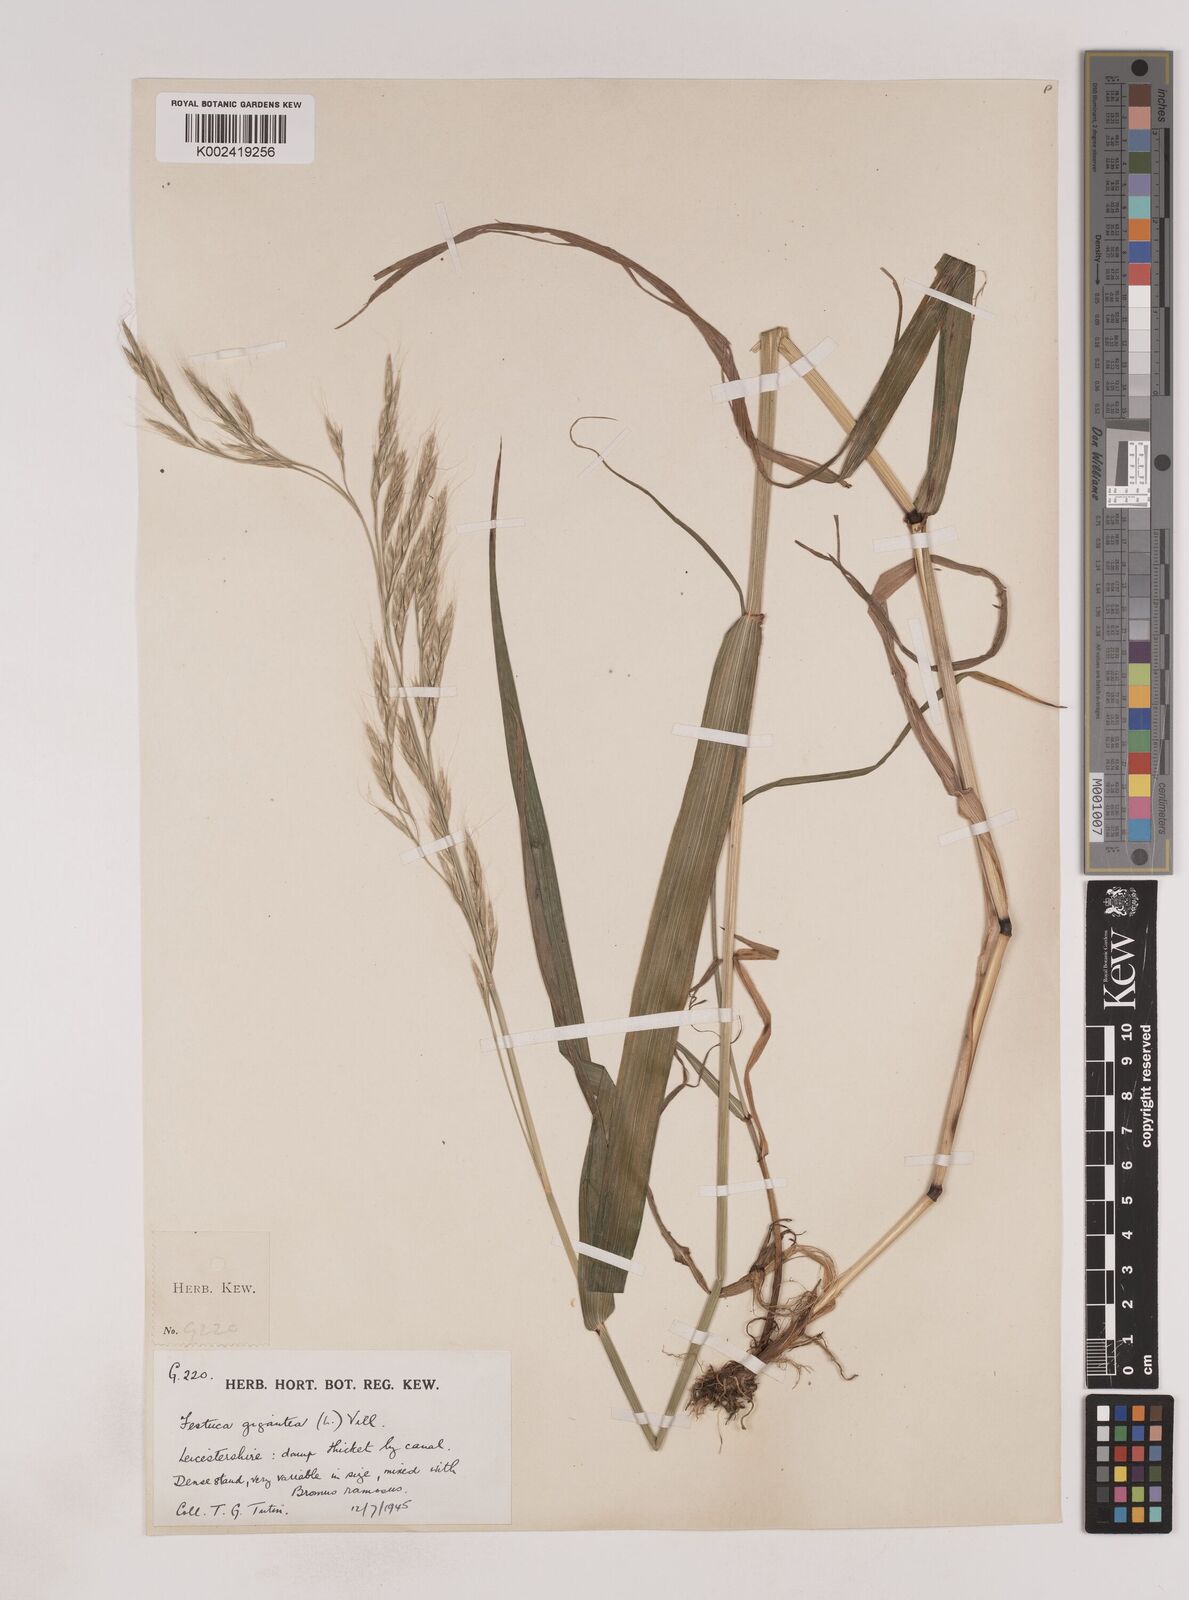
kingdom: Plantae
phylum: Tracheophyta
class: Liliopsida
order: Poales
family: Poaceae
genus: Lolium
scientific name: Lolium giganteum
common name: Giant fescue
